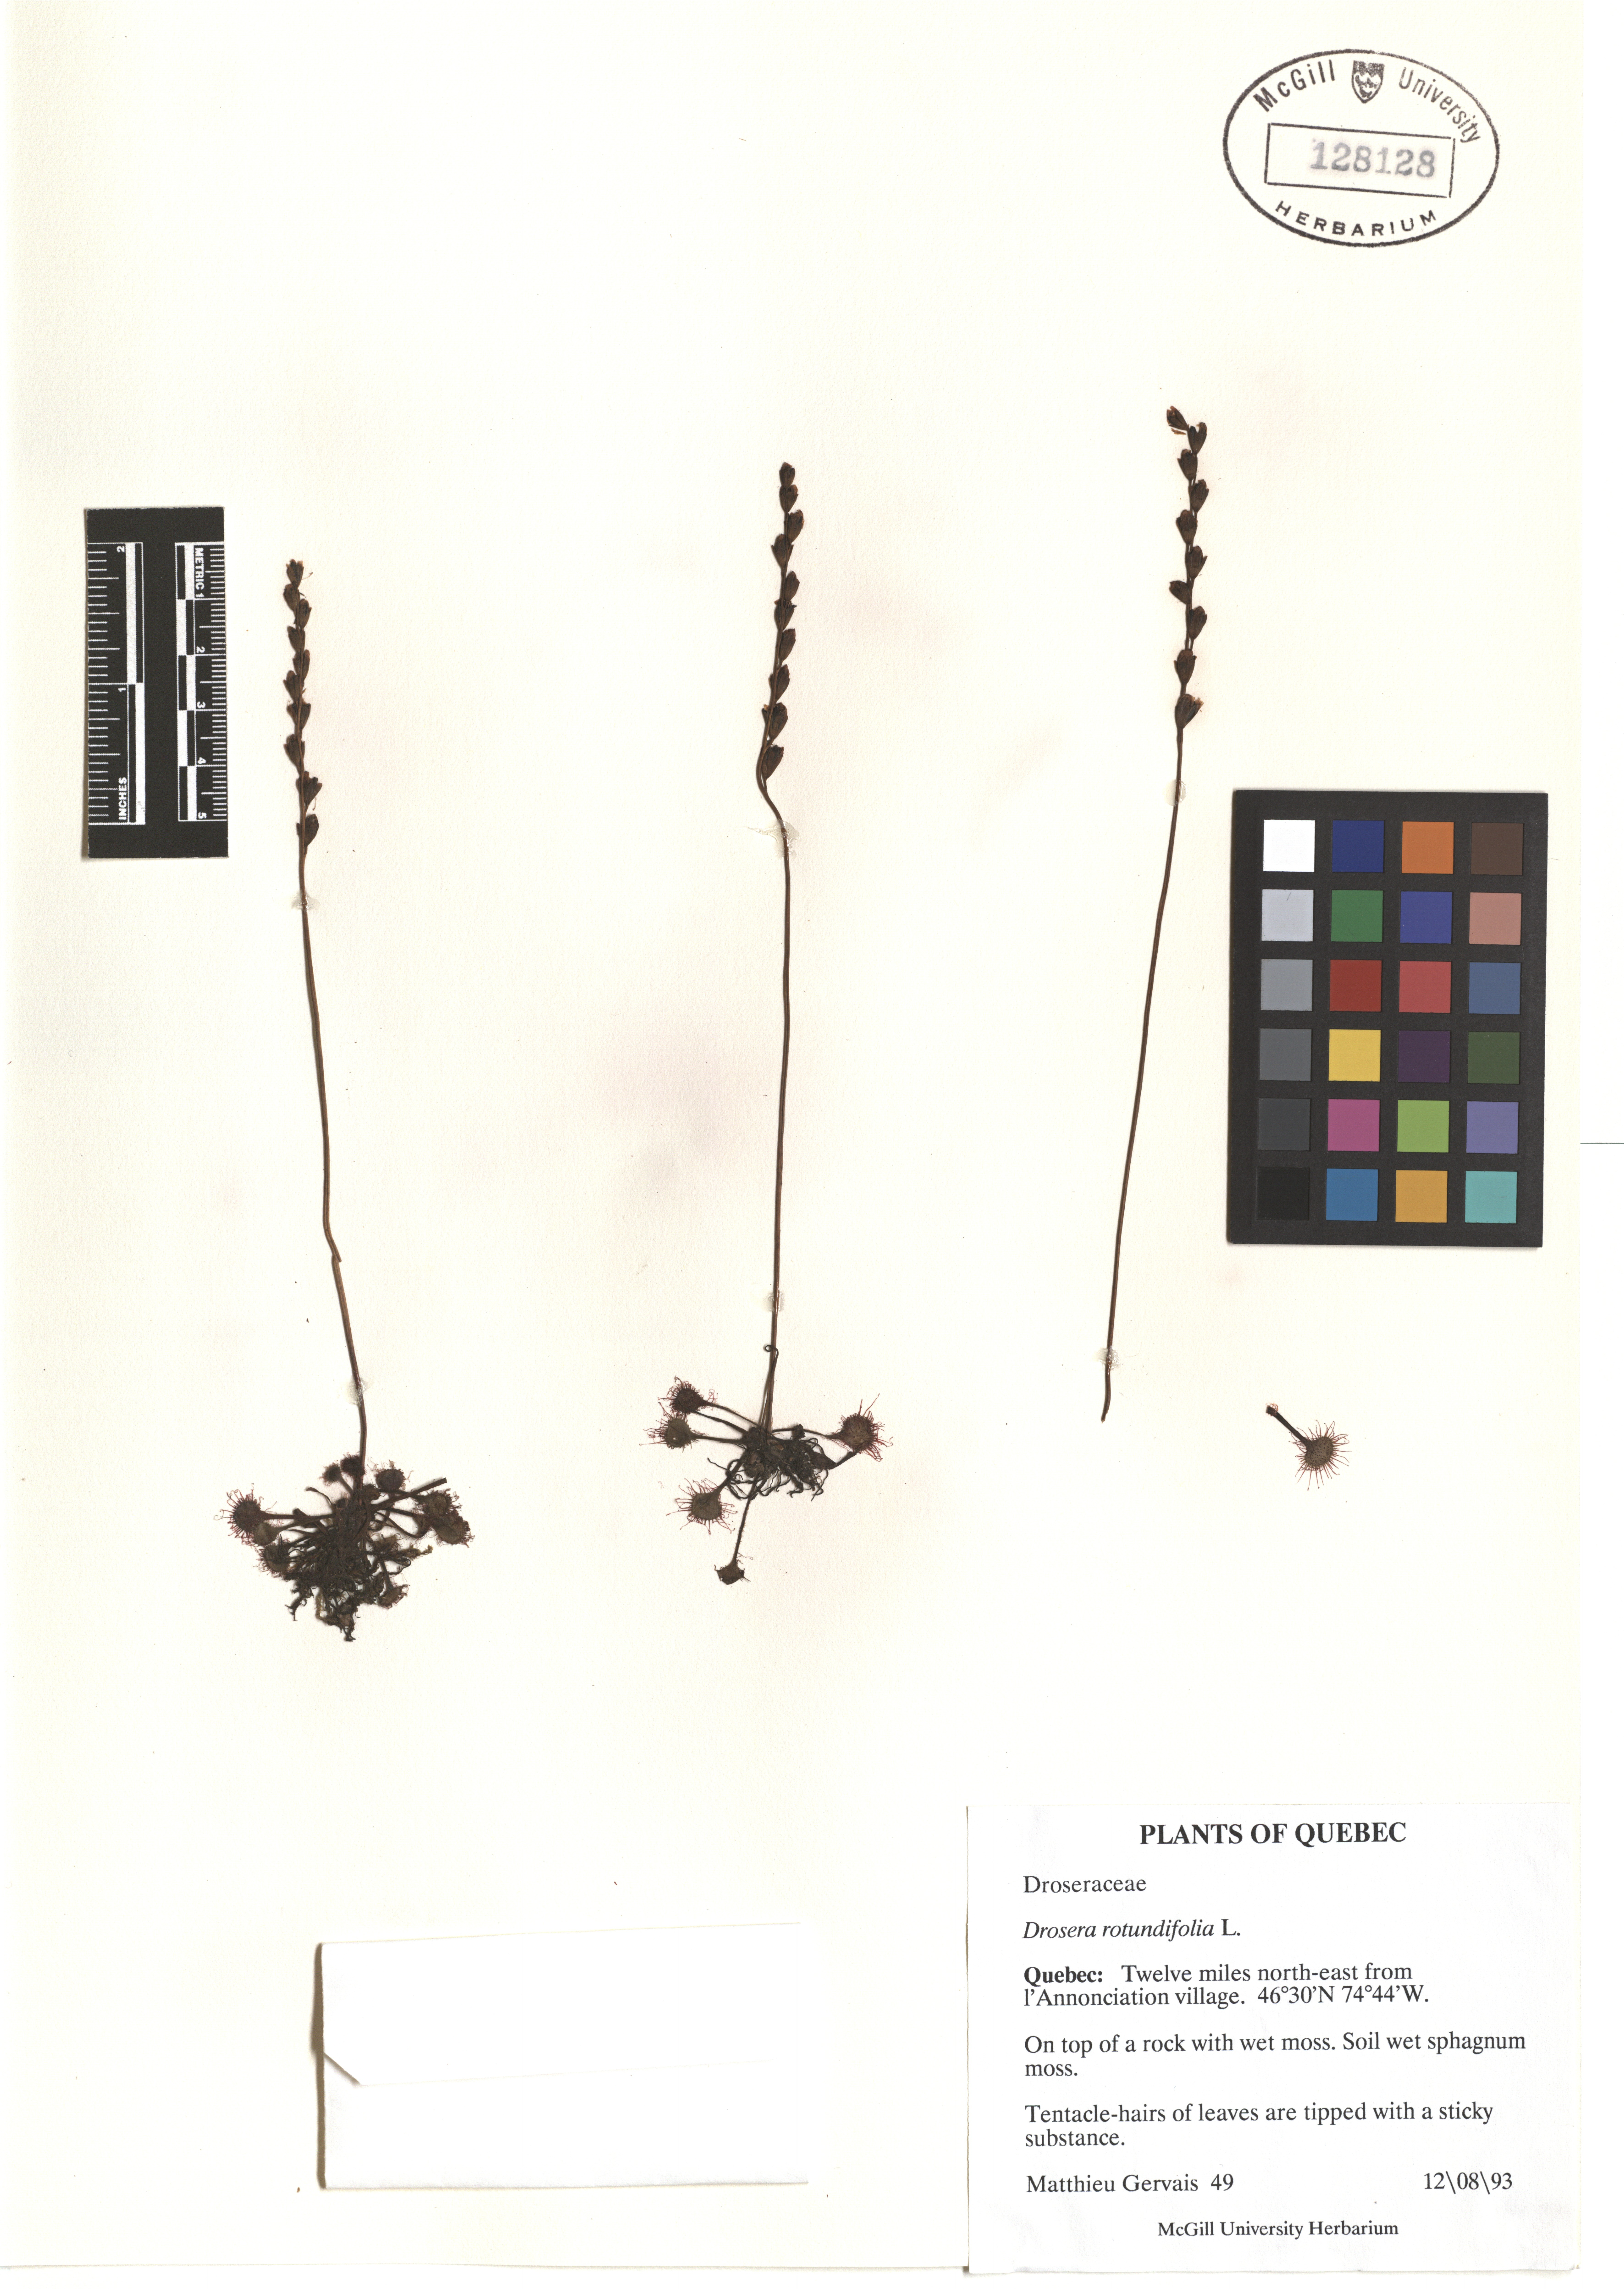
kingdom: Plantae
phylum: Tracheophyta
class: Magnoliopsida
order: Caryophyllales
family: Droseraceae
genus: Drosera
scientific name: Drosera rotundifolia
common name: Round-leaved sundew
